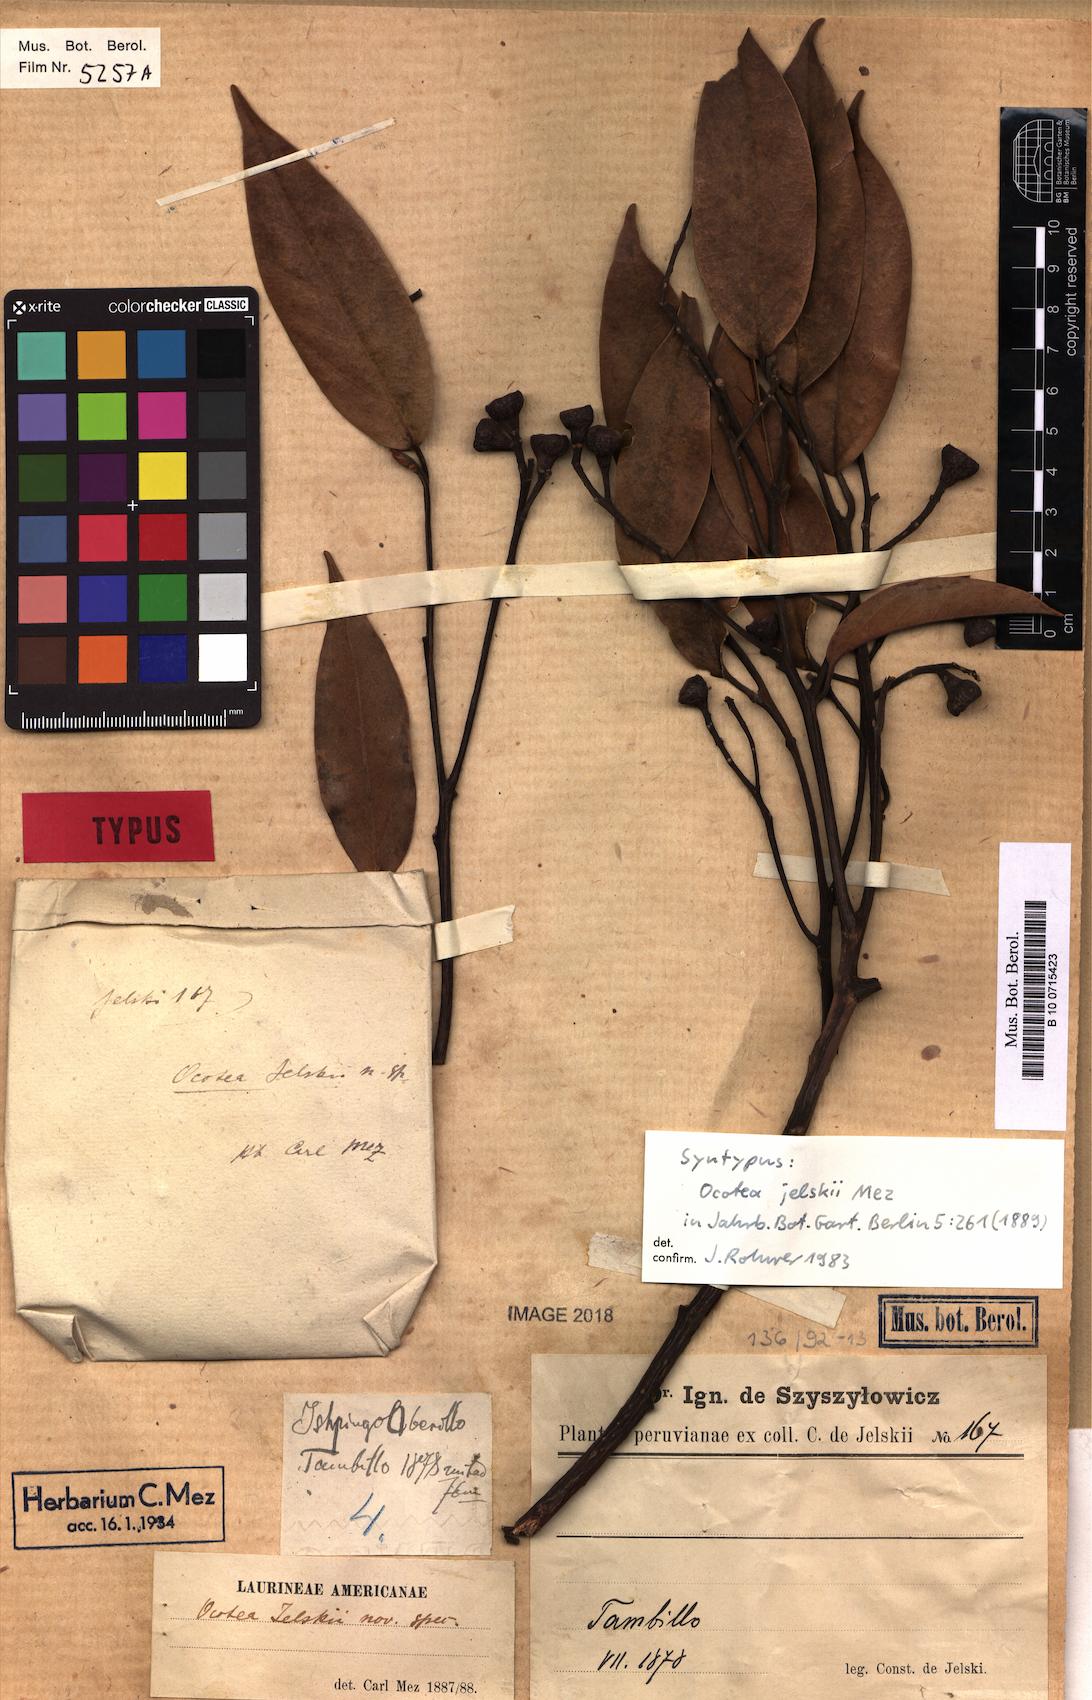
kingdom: Plantae
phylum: Tracheophyta
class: Magnoliopsida
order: Laurales
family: Lauraceae
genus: Ocotea
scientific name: Ocotea jelskii
